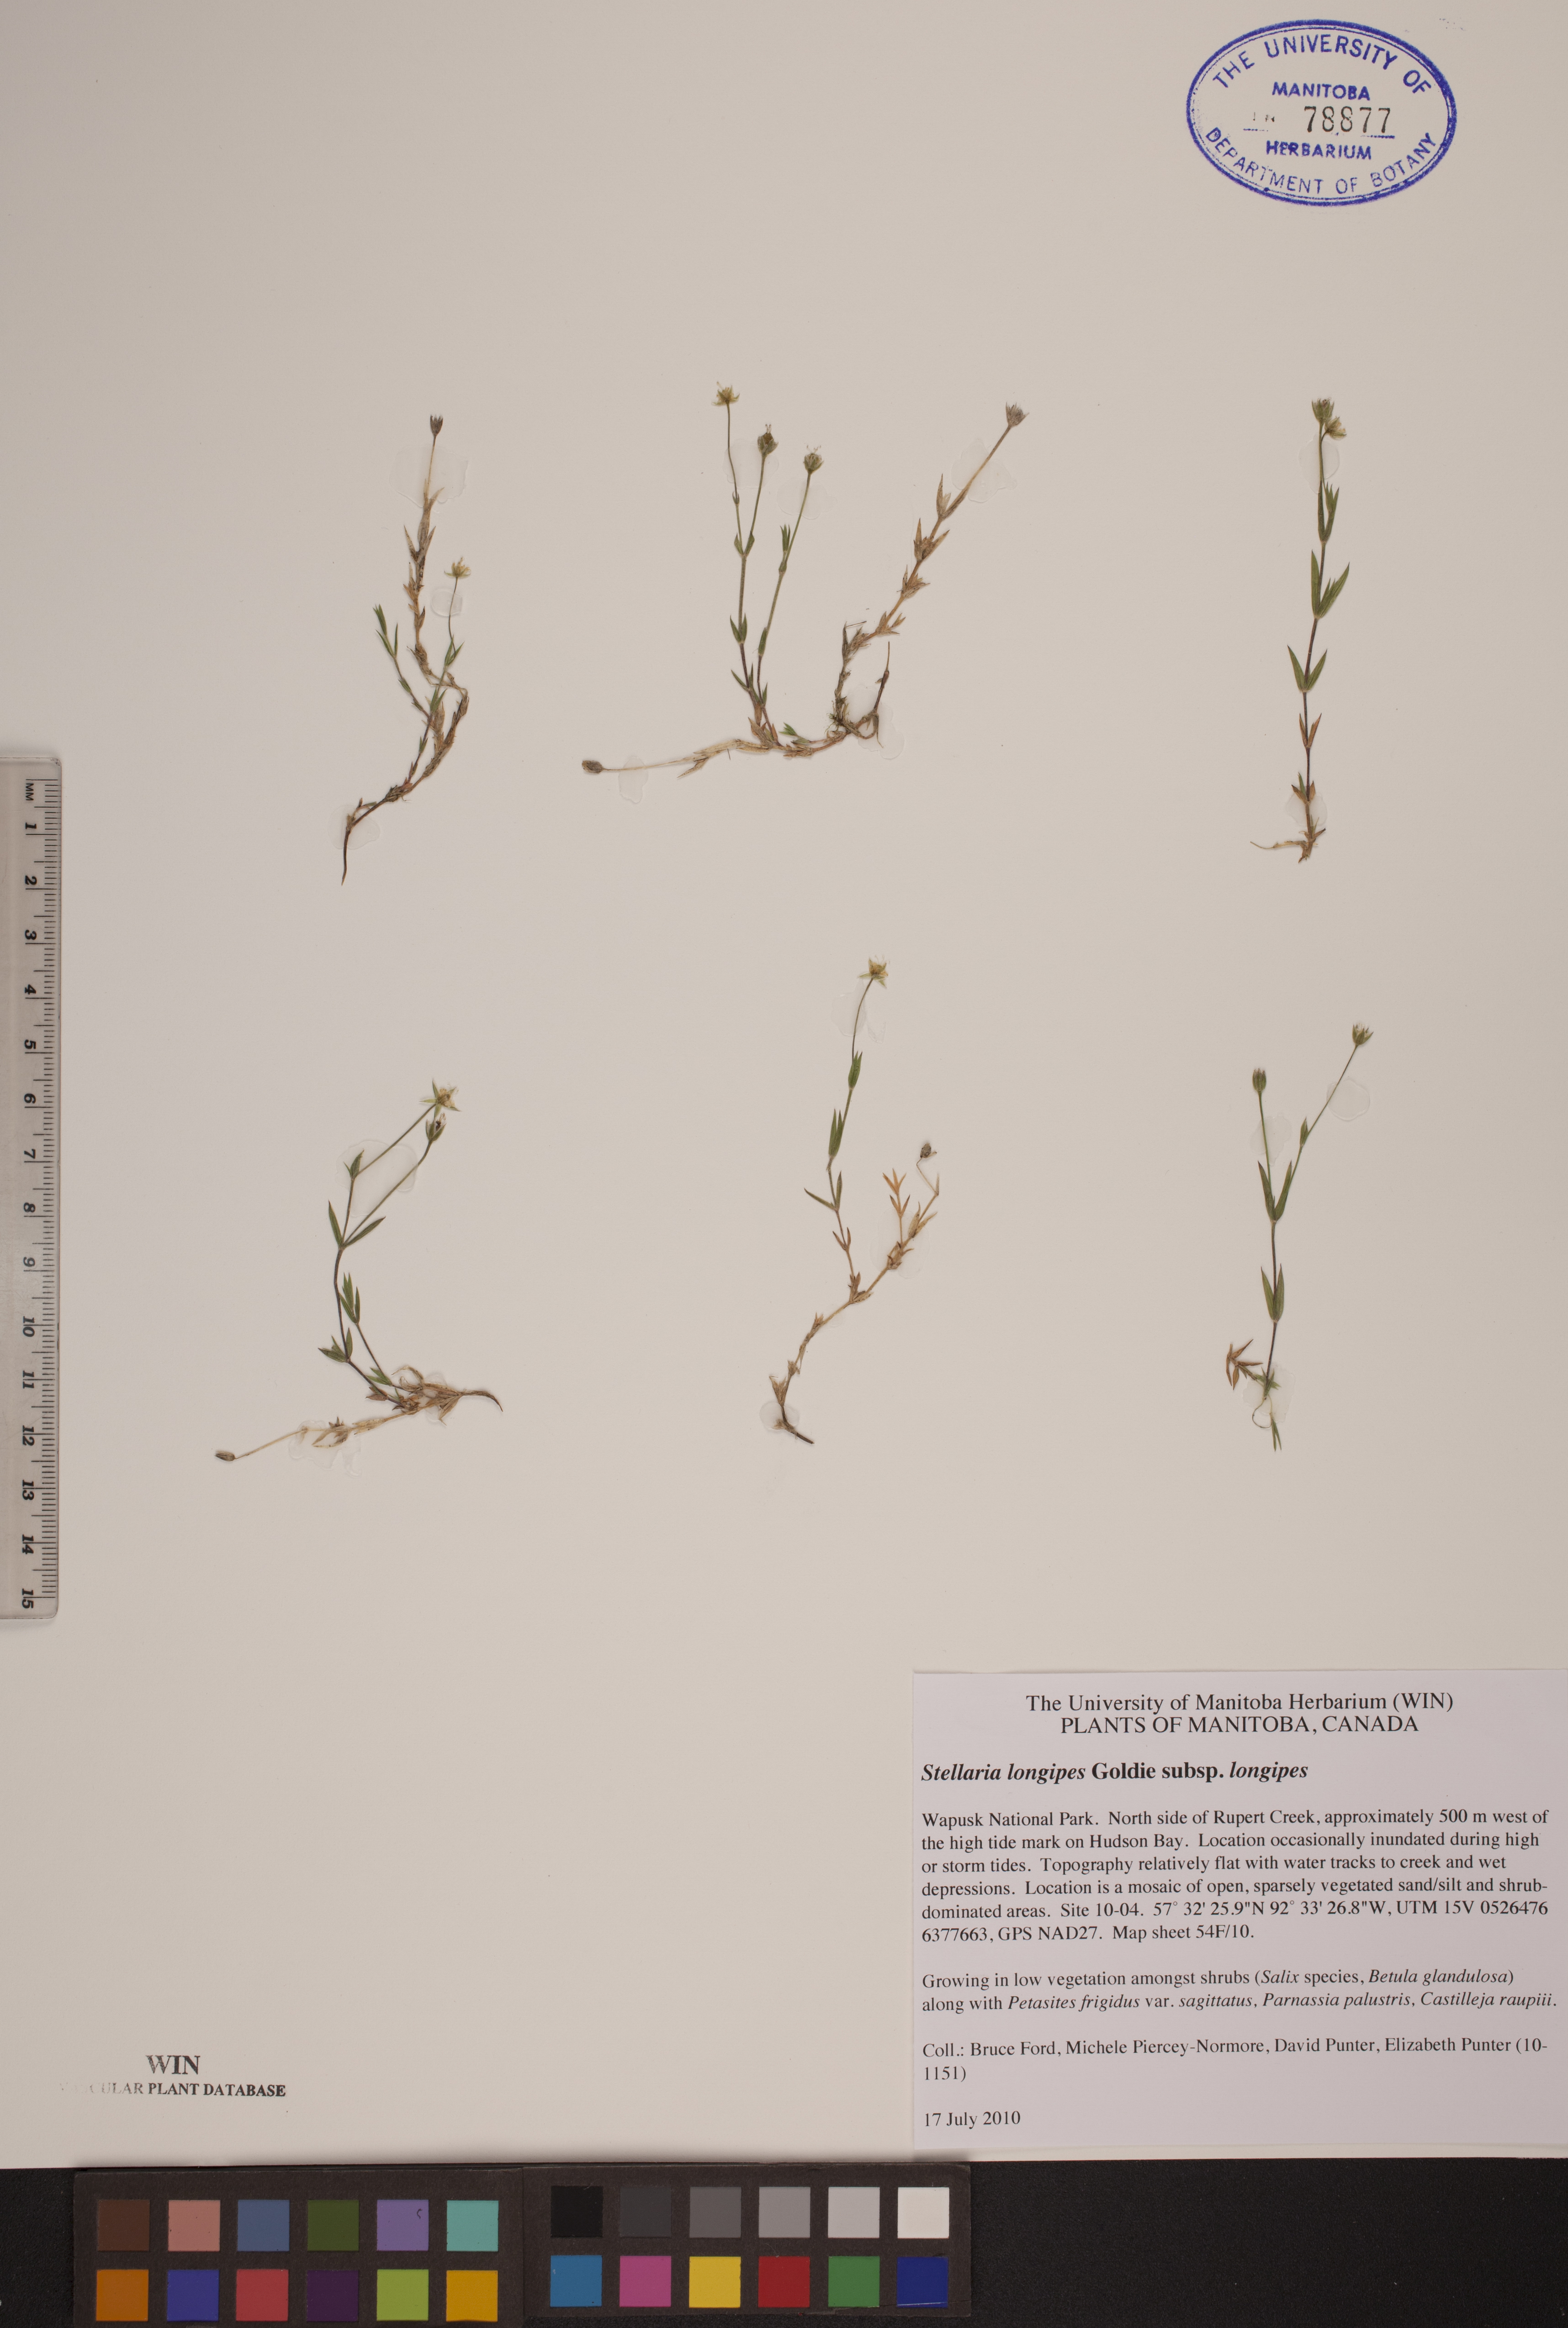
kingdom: Plantae
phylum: Tracheophyta
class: Magnoliopsida
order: Caryophyllales
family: Caryophyllaceae
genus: Stellaria
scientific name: Stellaria longipes
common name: Goldie's starwort
